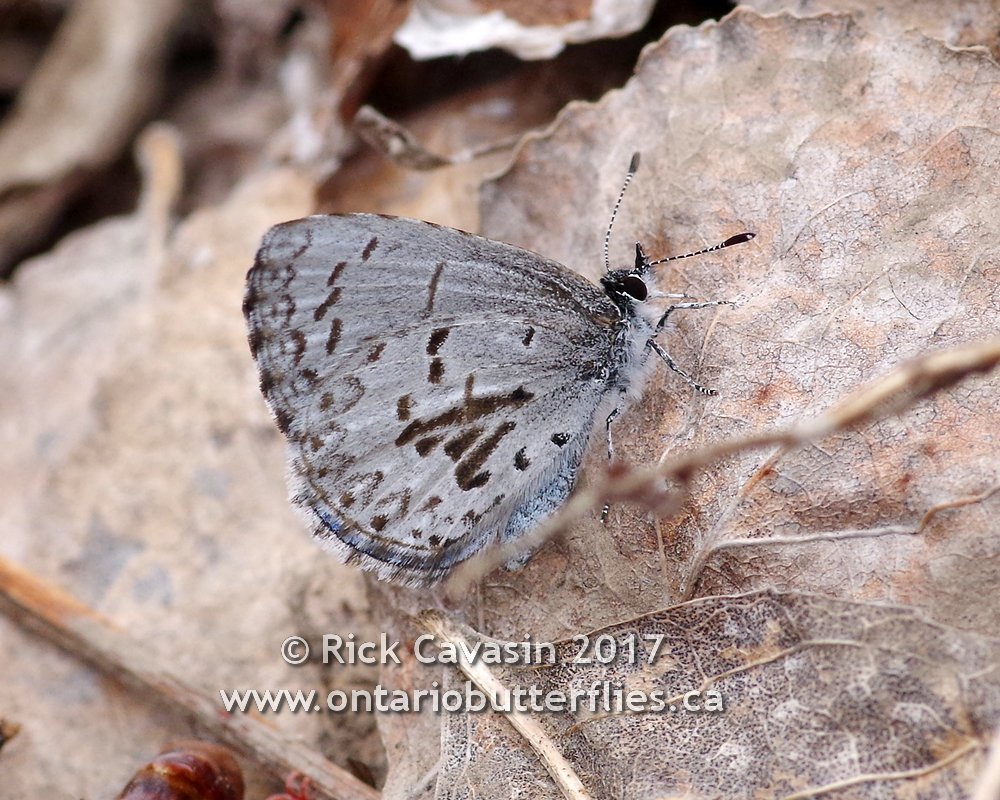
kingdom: Animalia
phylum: Arthropoda
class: Insecta
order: Lepidoptera
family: Lycaenidae
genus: Celastrina
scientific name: Celastrina lucia
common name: Northern Spring Azure
